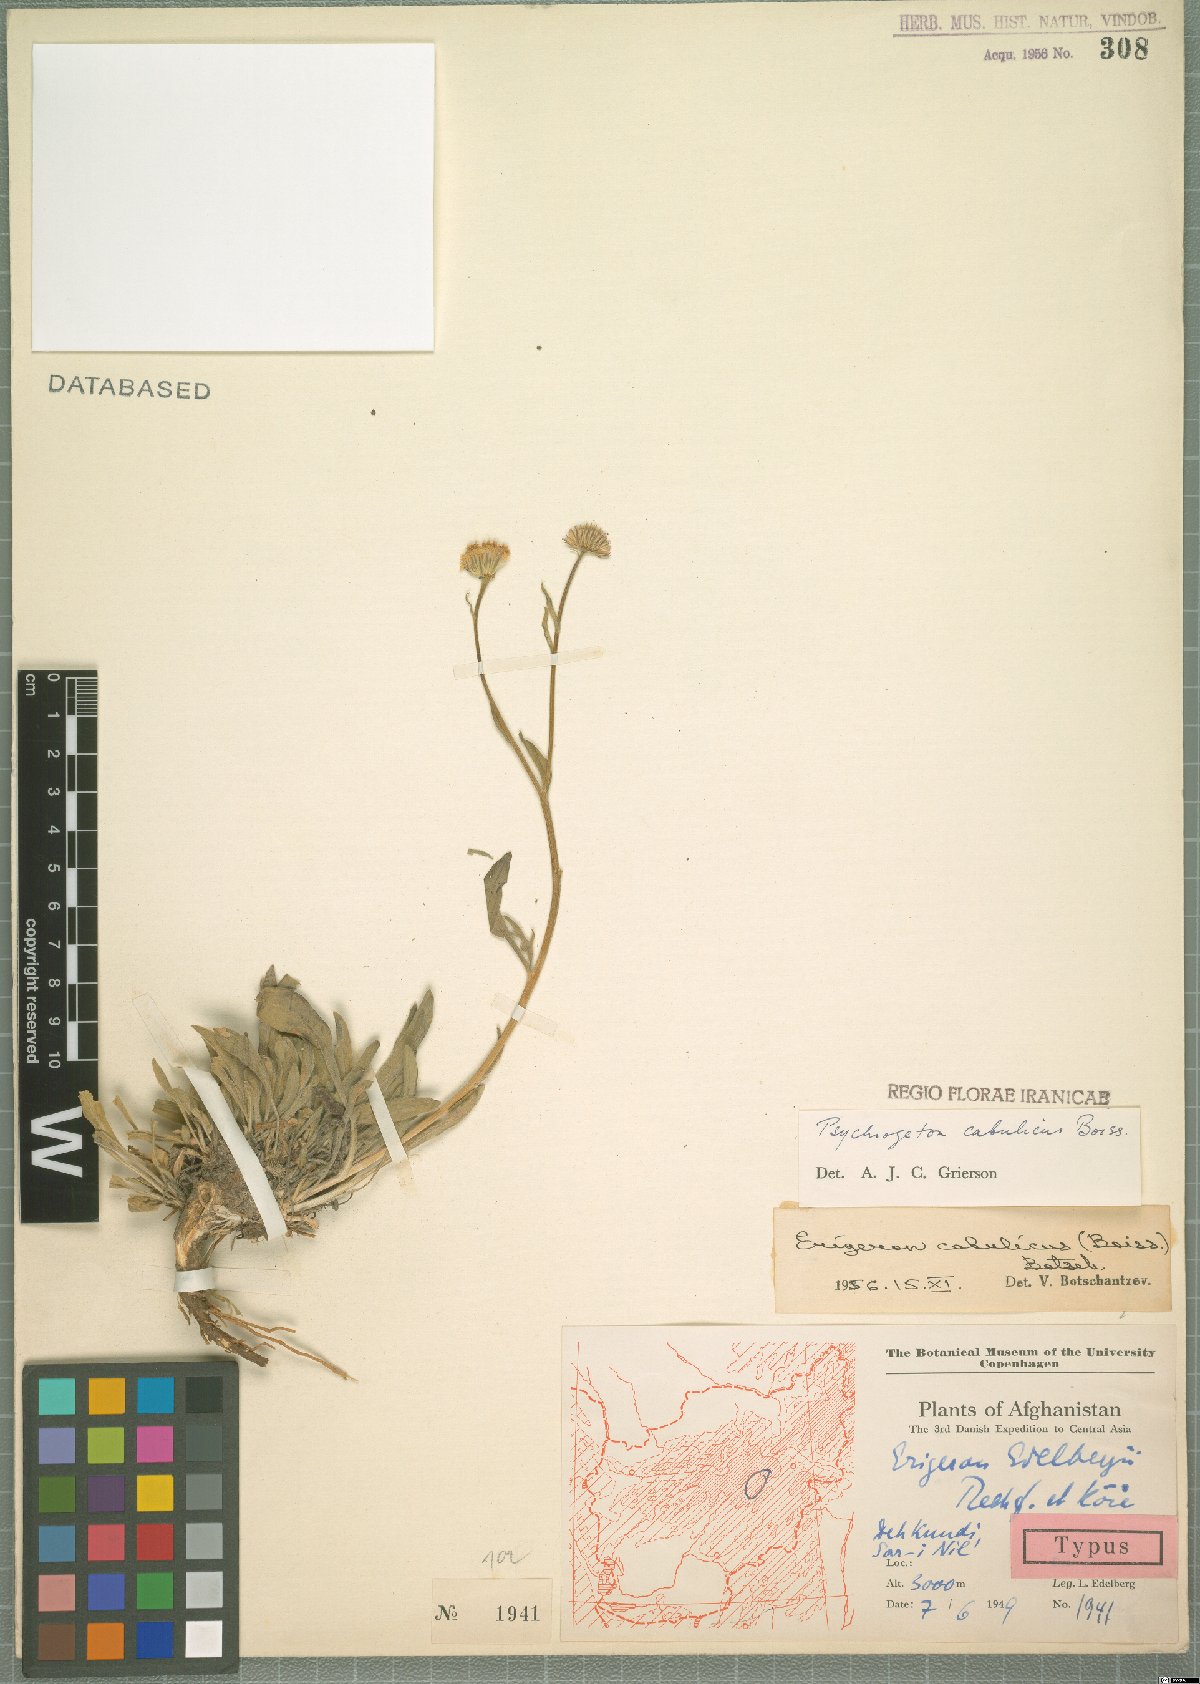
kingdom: Plantae
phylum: Tracheophyta
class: Magnoliopsida
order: Asterales
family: Asteraceae
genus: Psychrogeton
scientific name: Psychrogeton cabulicus
